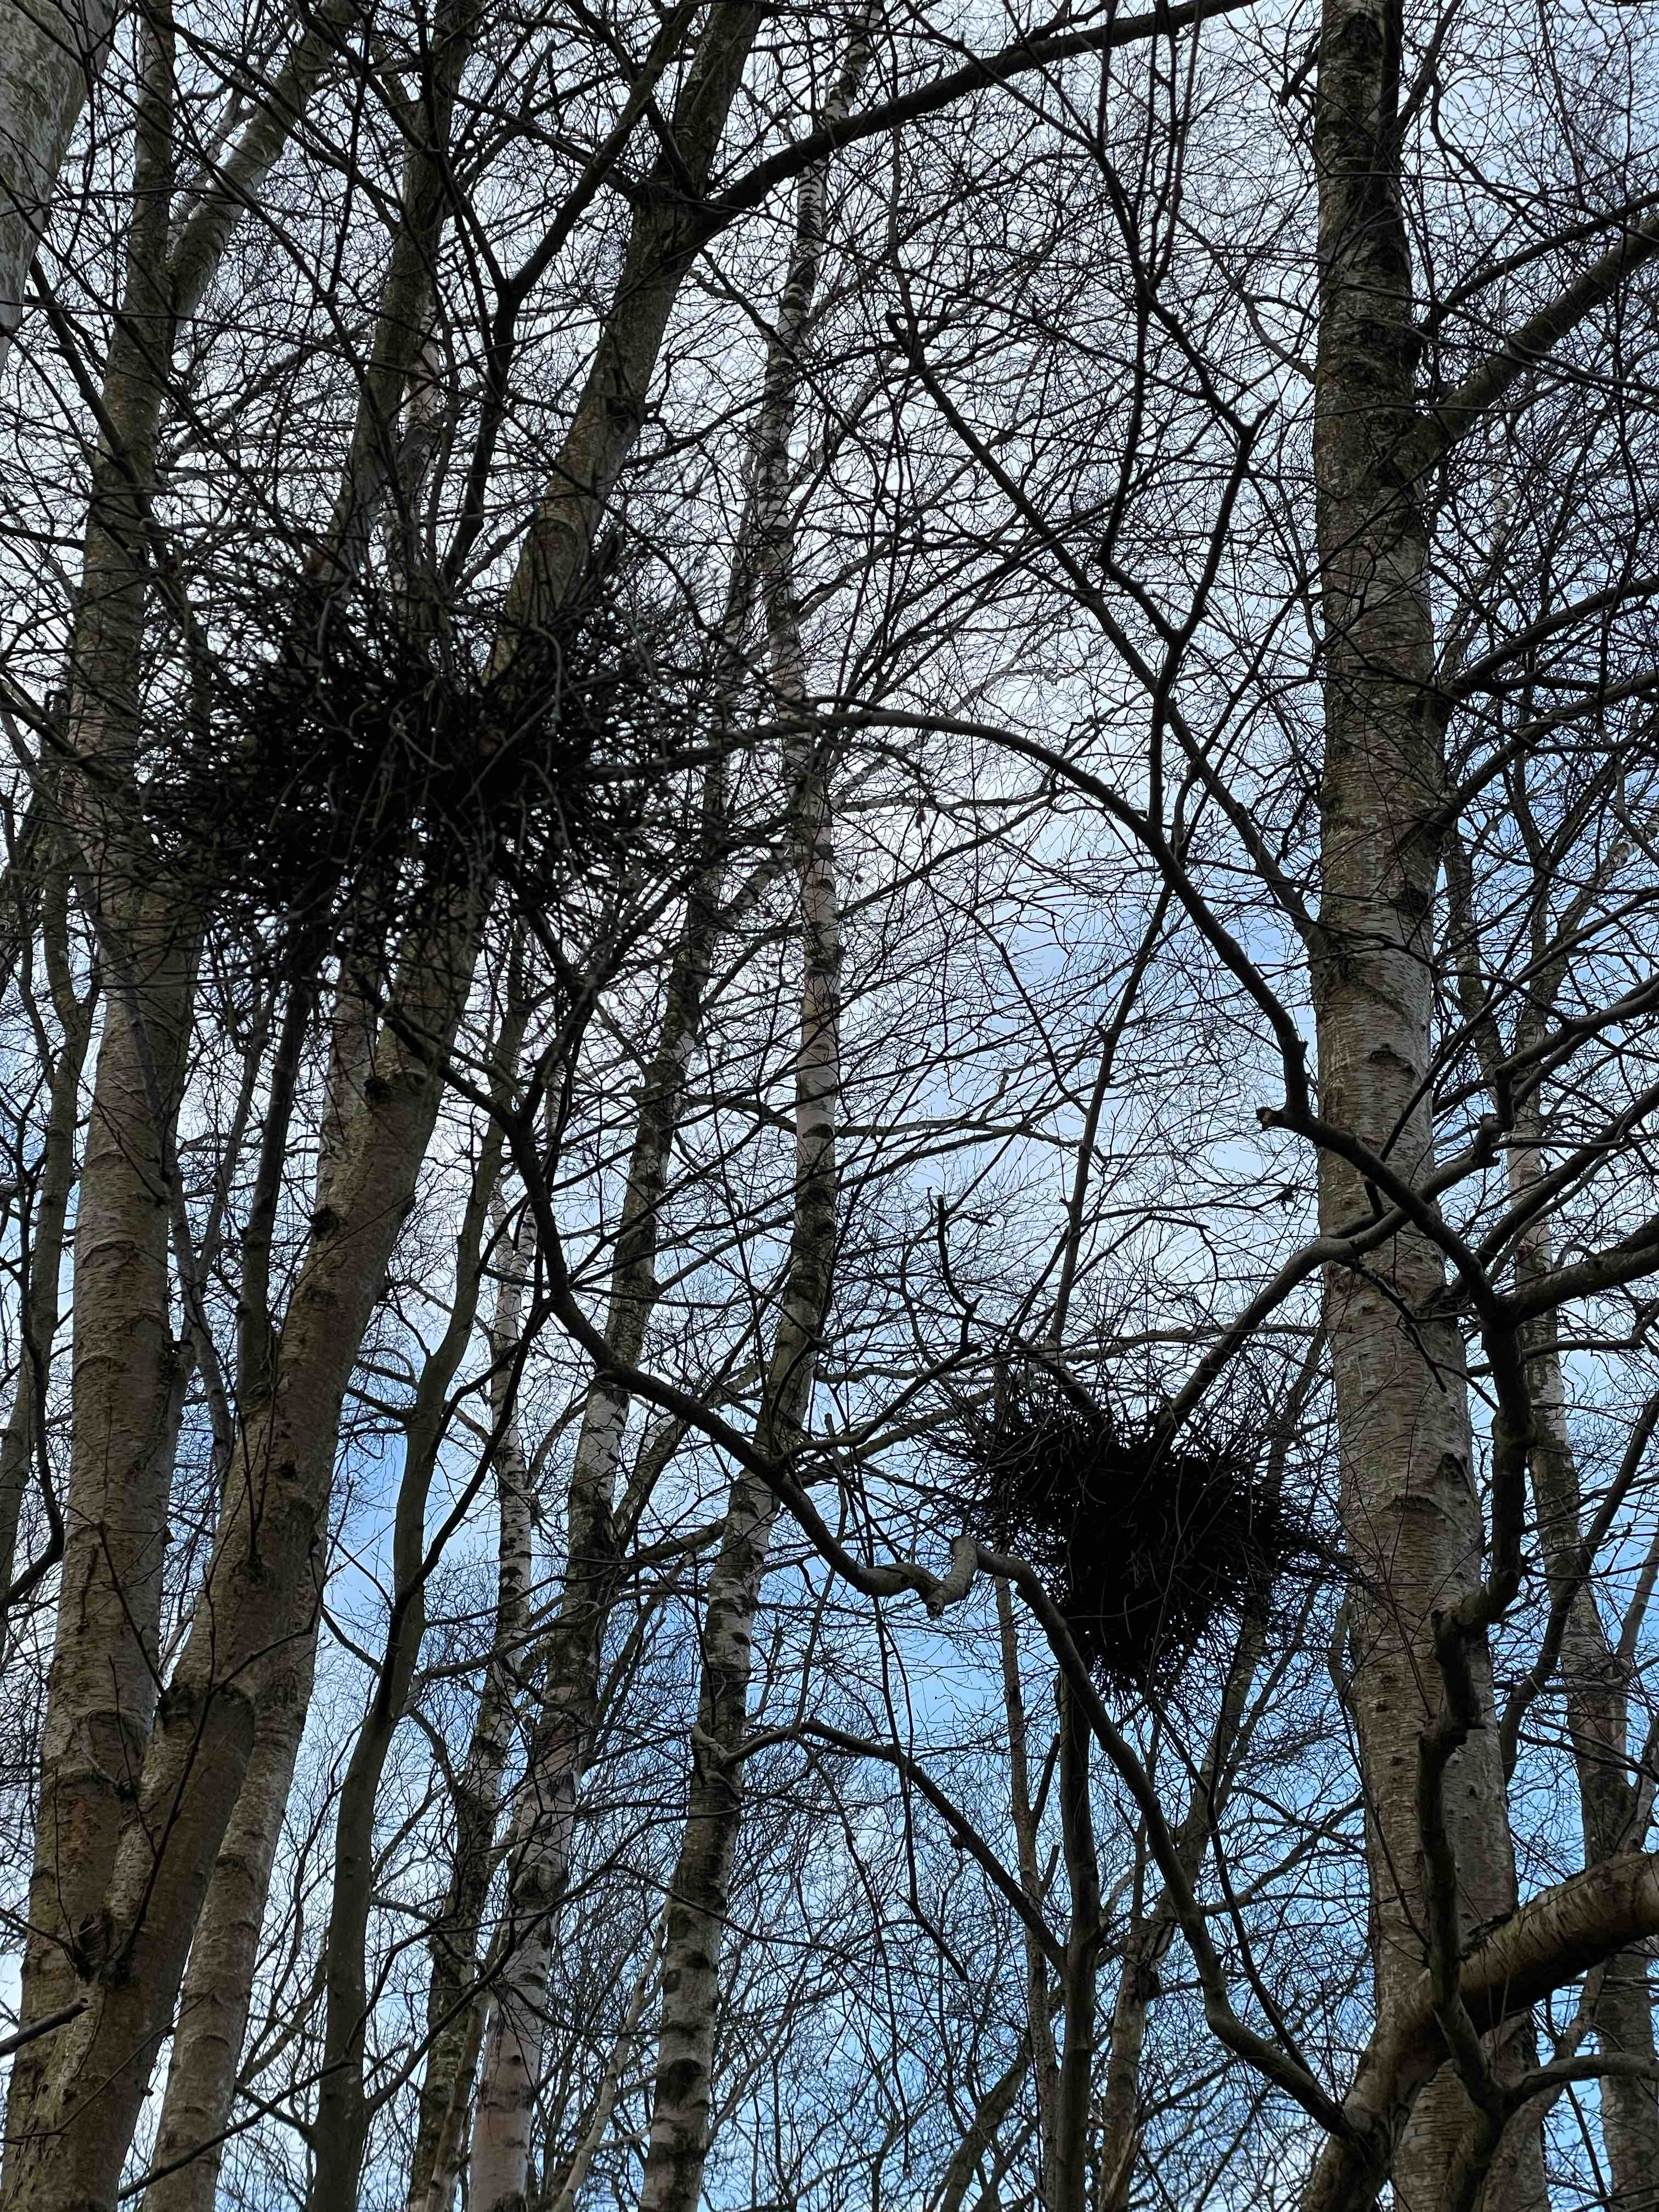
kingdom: Fungi
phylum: Ascomycota
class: Taphrinomycetes
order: Taphrinales
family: Taphrinaceae
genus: Taphrina
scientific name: Taphrina betulina
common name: hekse-sækdug
